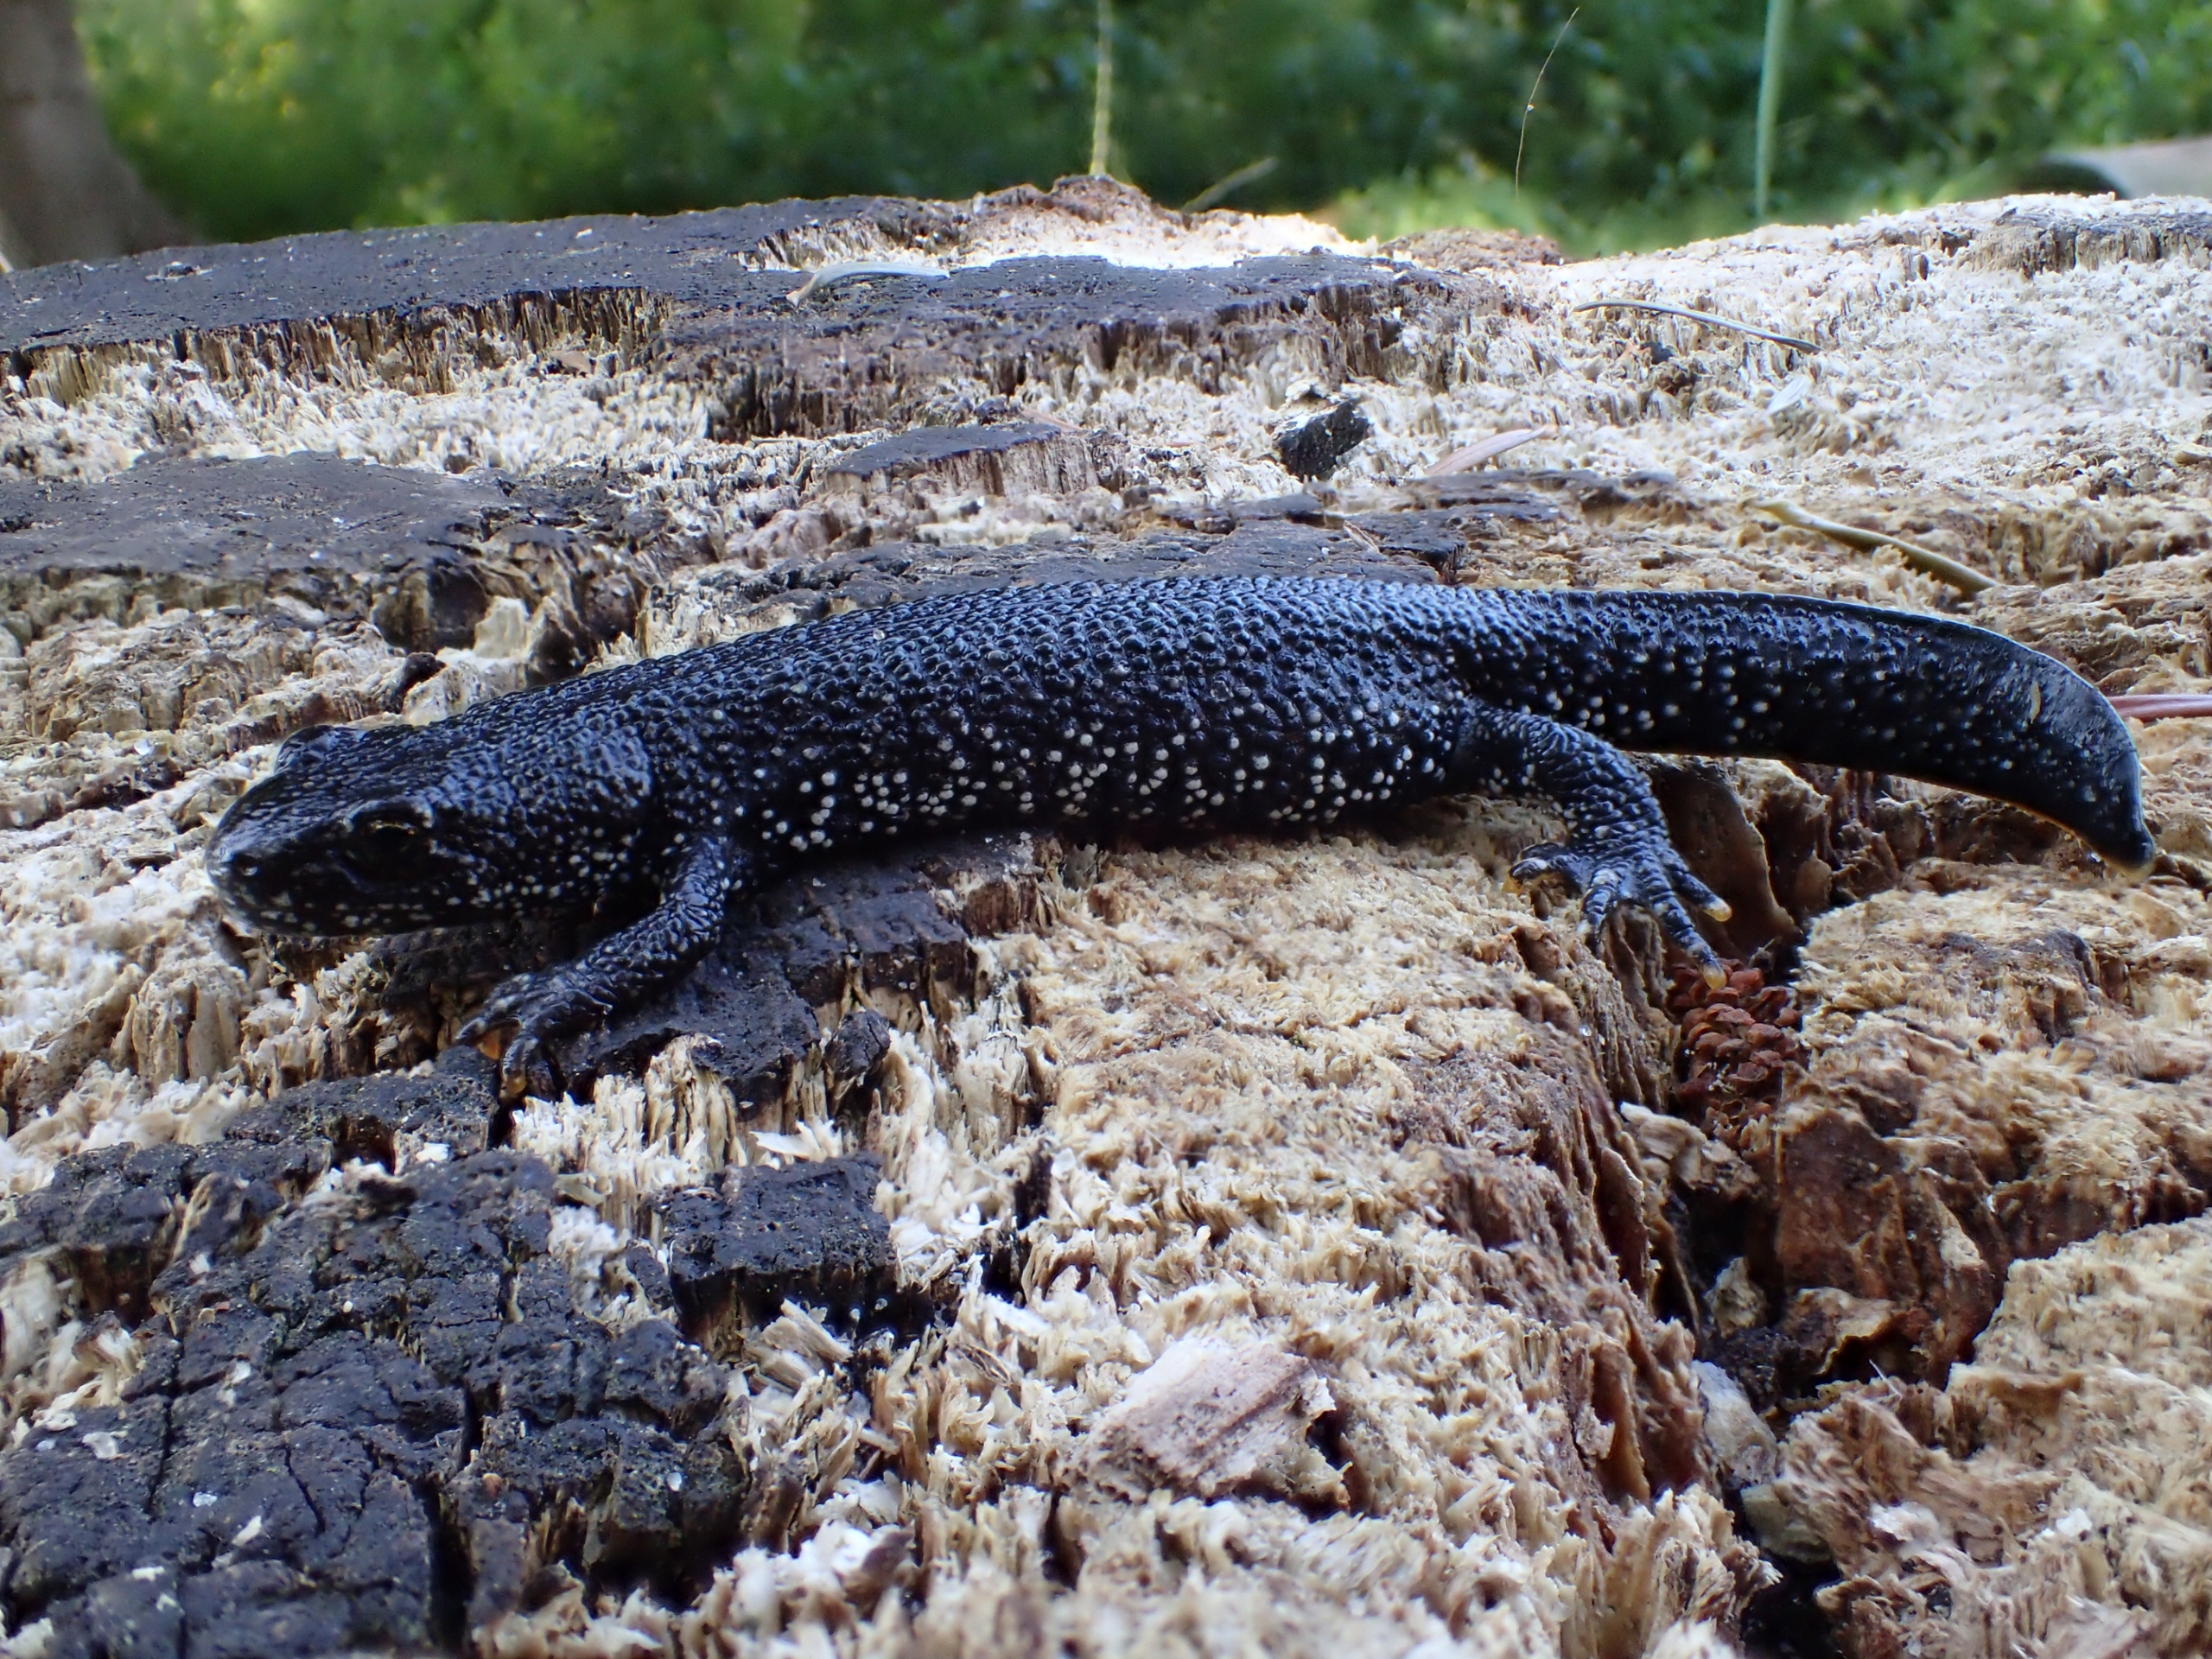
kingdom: Animalia
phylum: Chordata
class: Amphibia
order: Caudata
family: Salamandridae
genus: Triturus
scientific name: Triturus cristatus
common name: Stor vandsalamander
